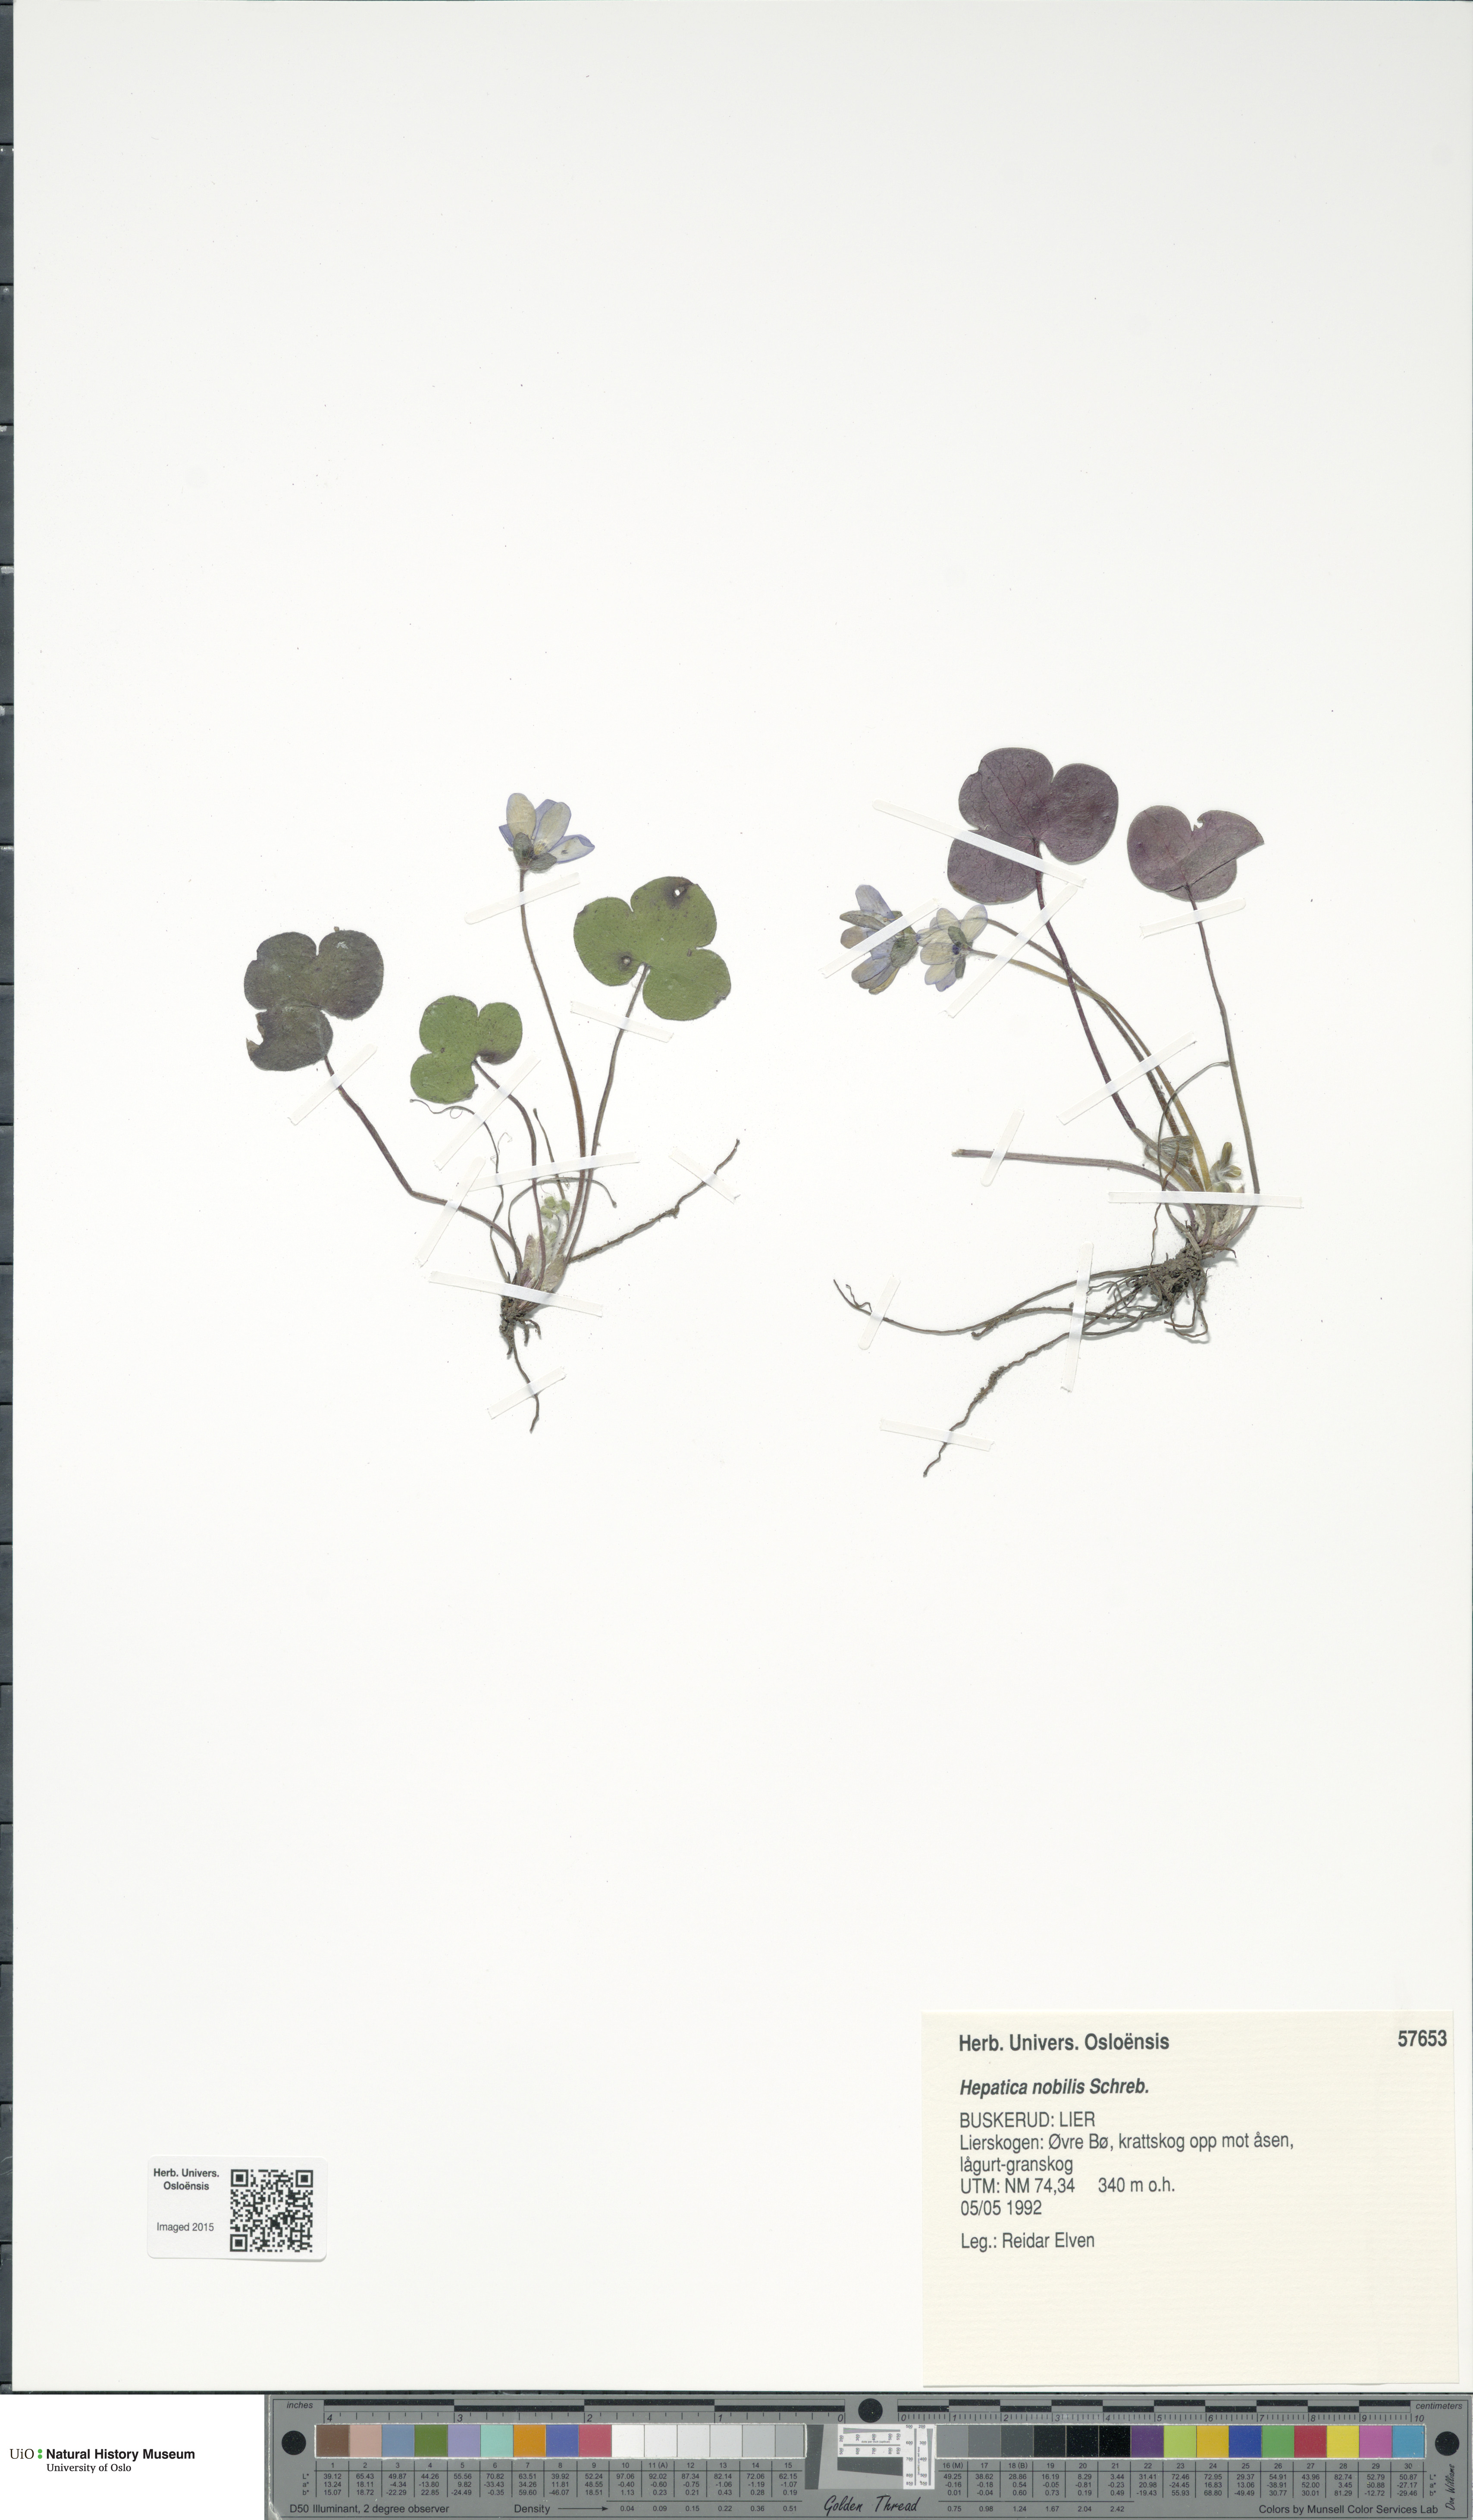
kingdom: Plantae
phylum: Tracheophyta
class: Magnoliopsida
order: Ranunculales
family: Ranunculaceae
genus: Hepatica
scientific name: Hepatica nobilis
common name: Liverleaf
